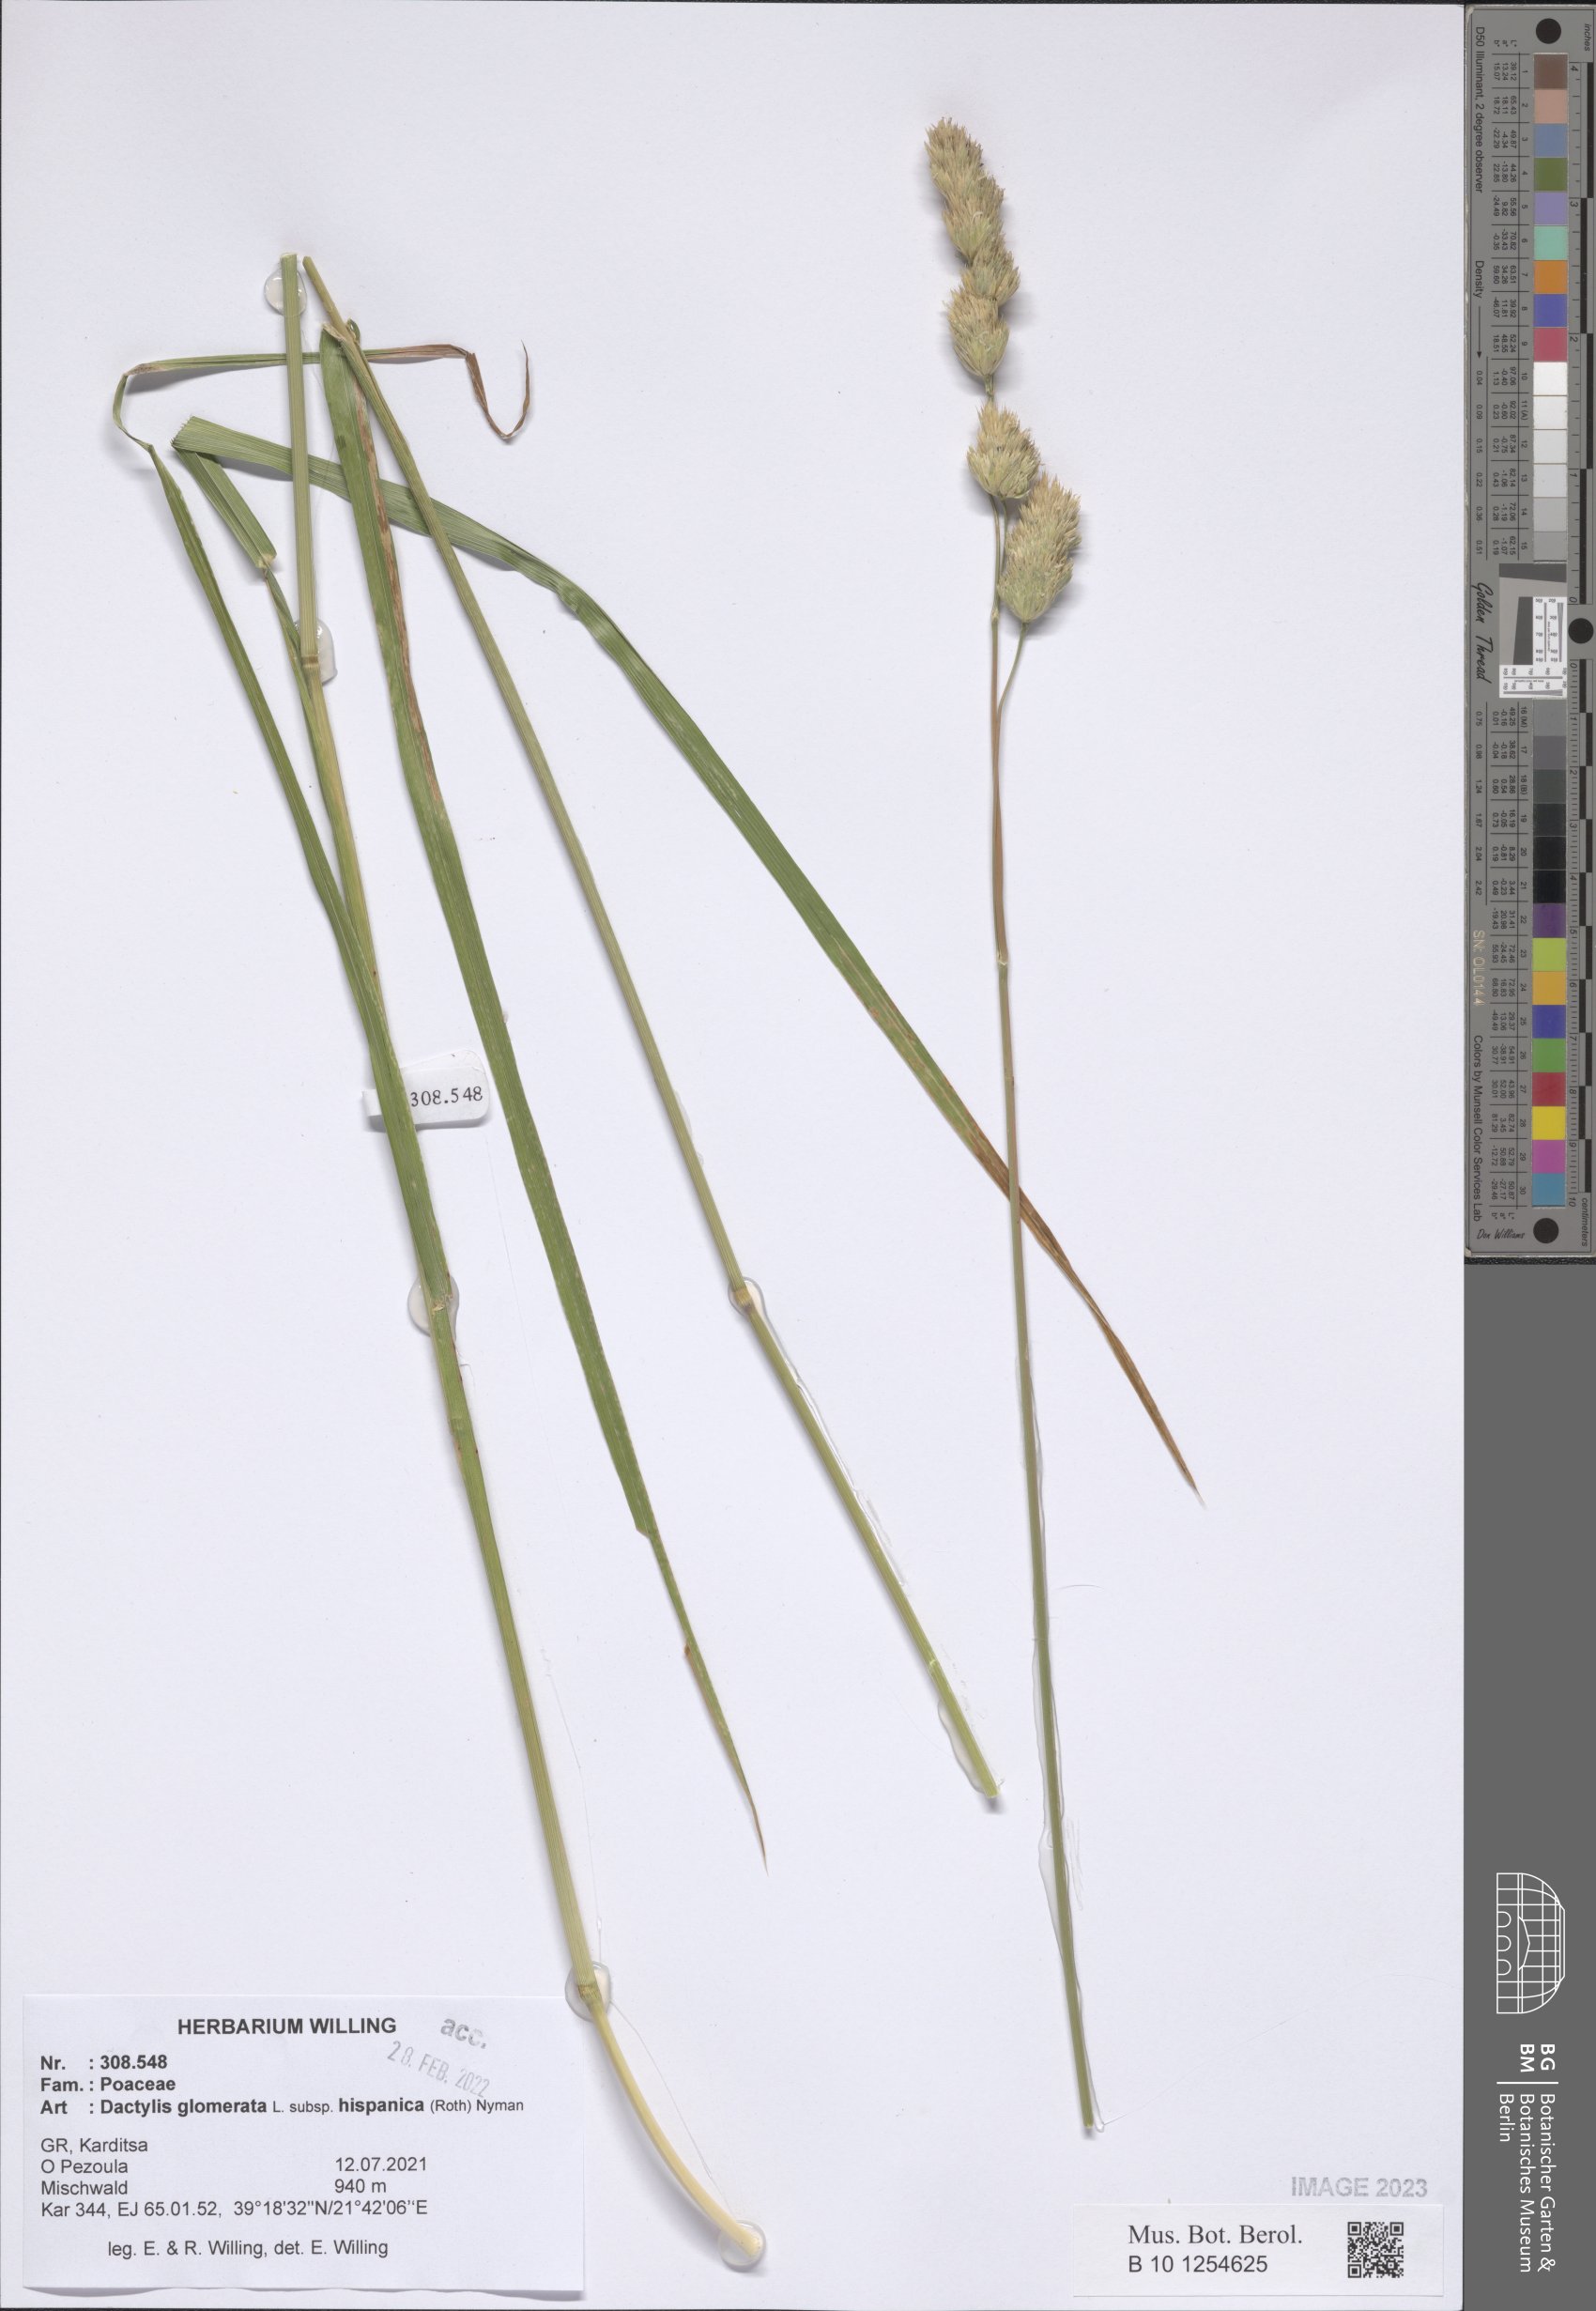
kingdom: Plantae
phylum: Tracheophyta
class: Liliopsida
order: Poales
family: Poaceae
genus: Dactylis
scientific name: Dactylis glomerata
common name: Orchardgrass
